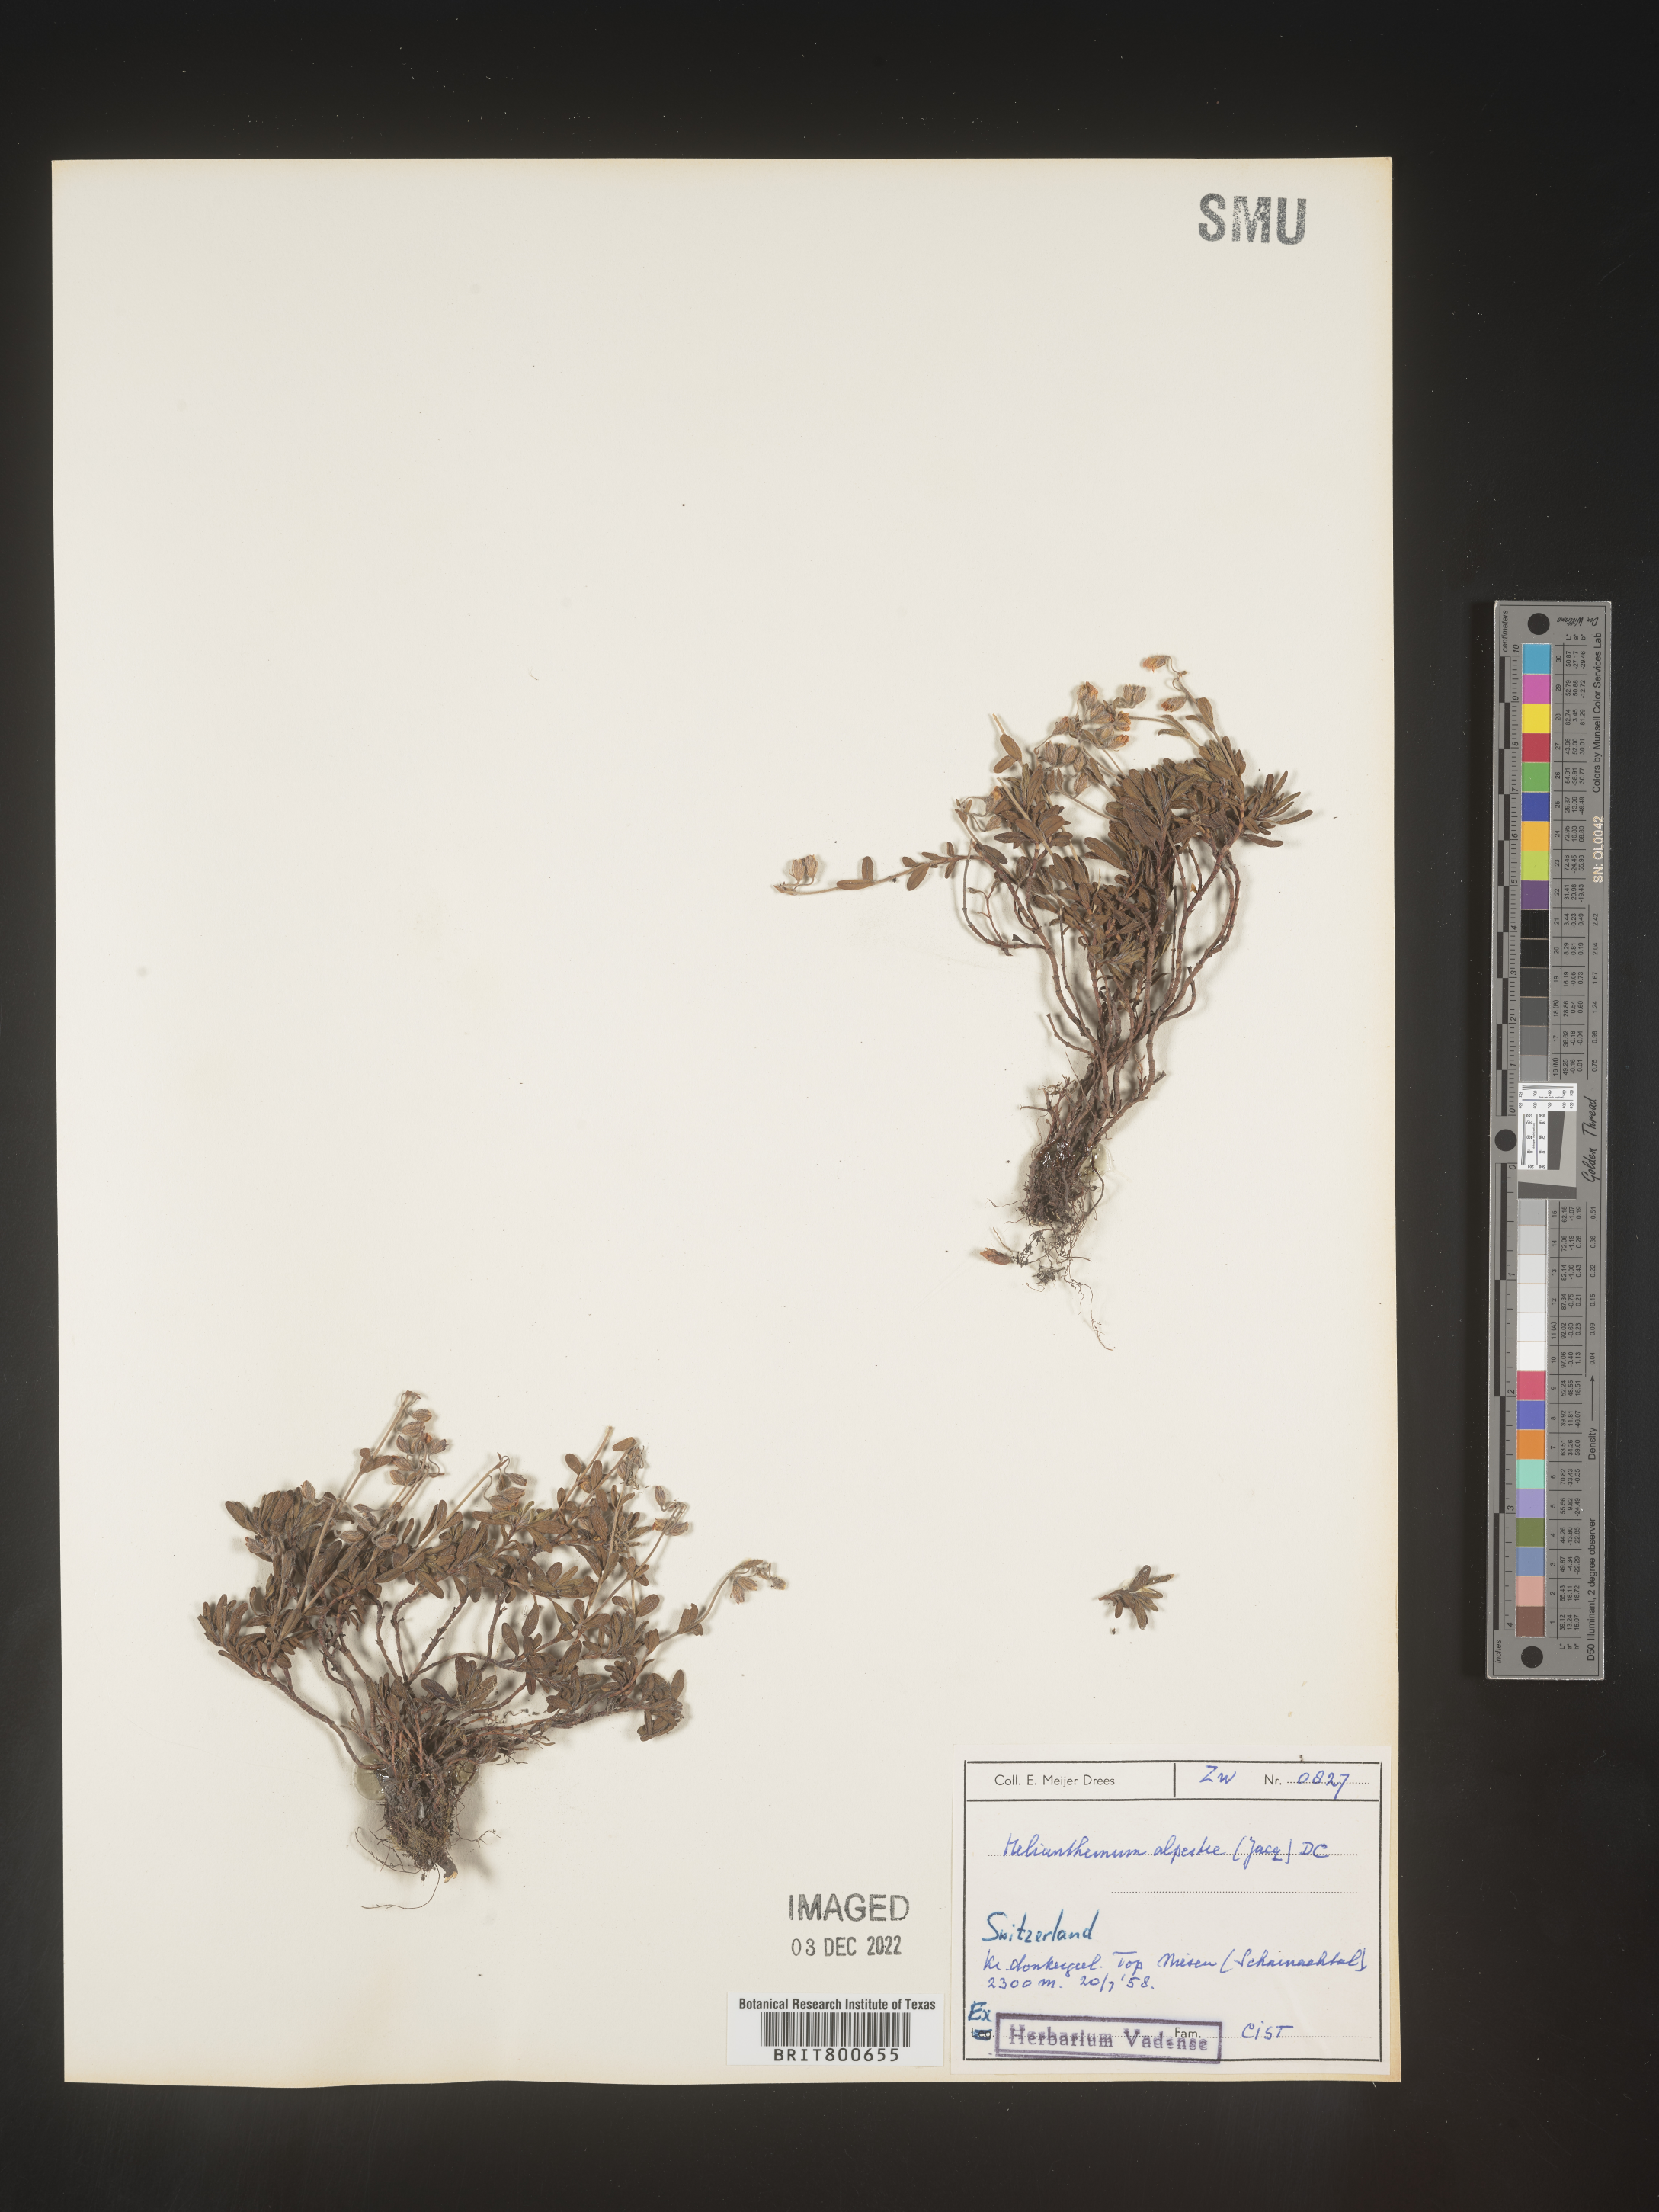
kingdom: Plantae
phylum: Tracheophyta
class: Magnoliopsida
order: Malvales
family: Cistaceae
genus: Helianthemum
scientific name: Helianthemum
